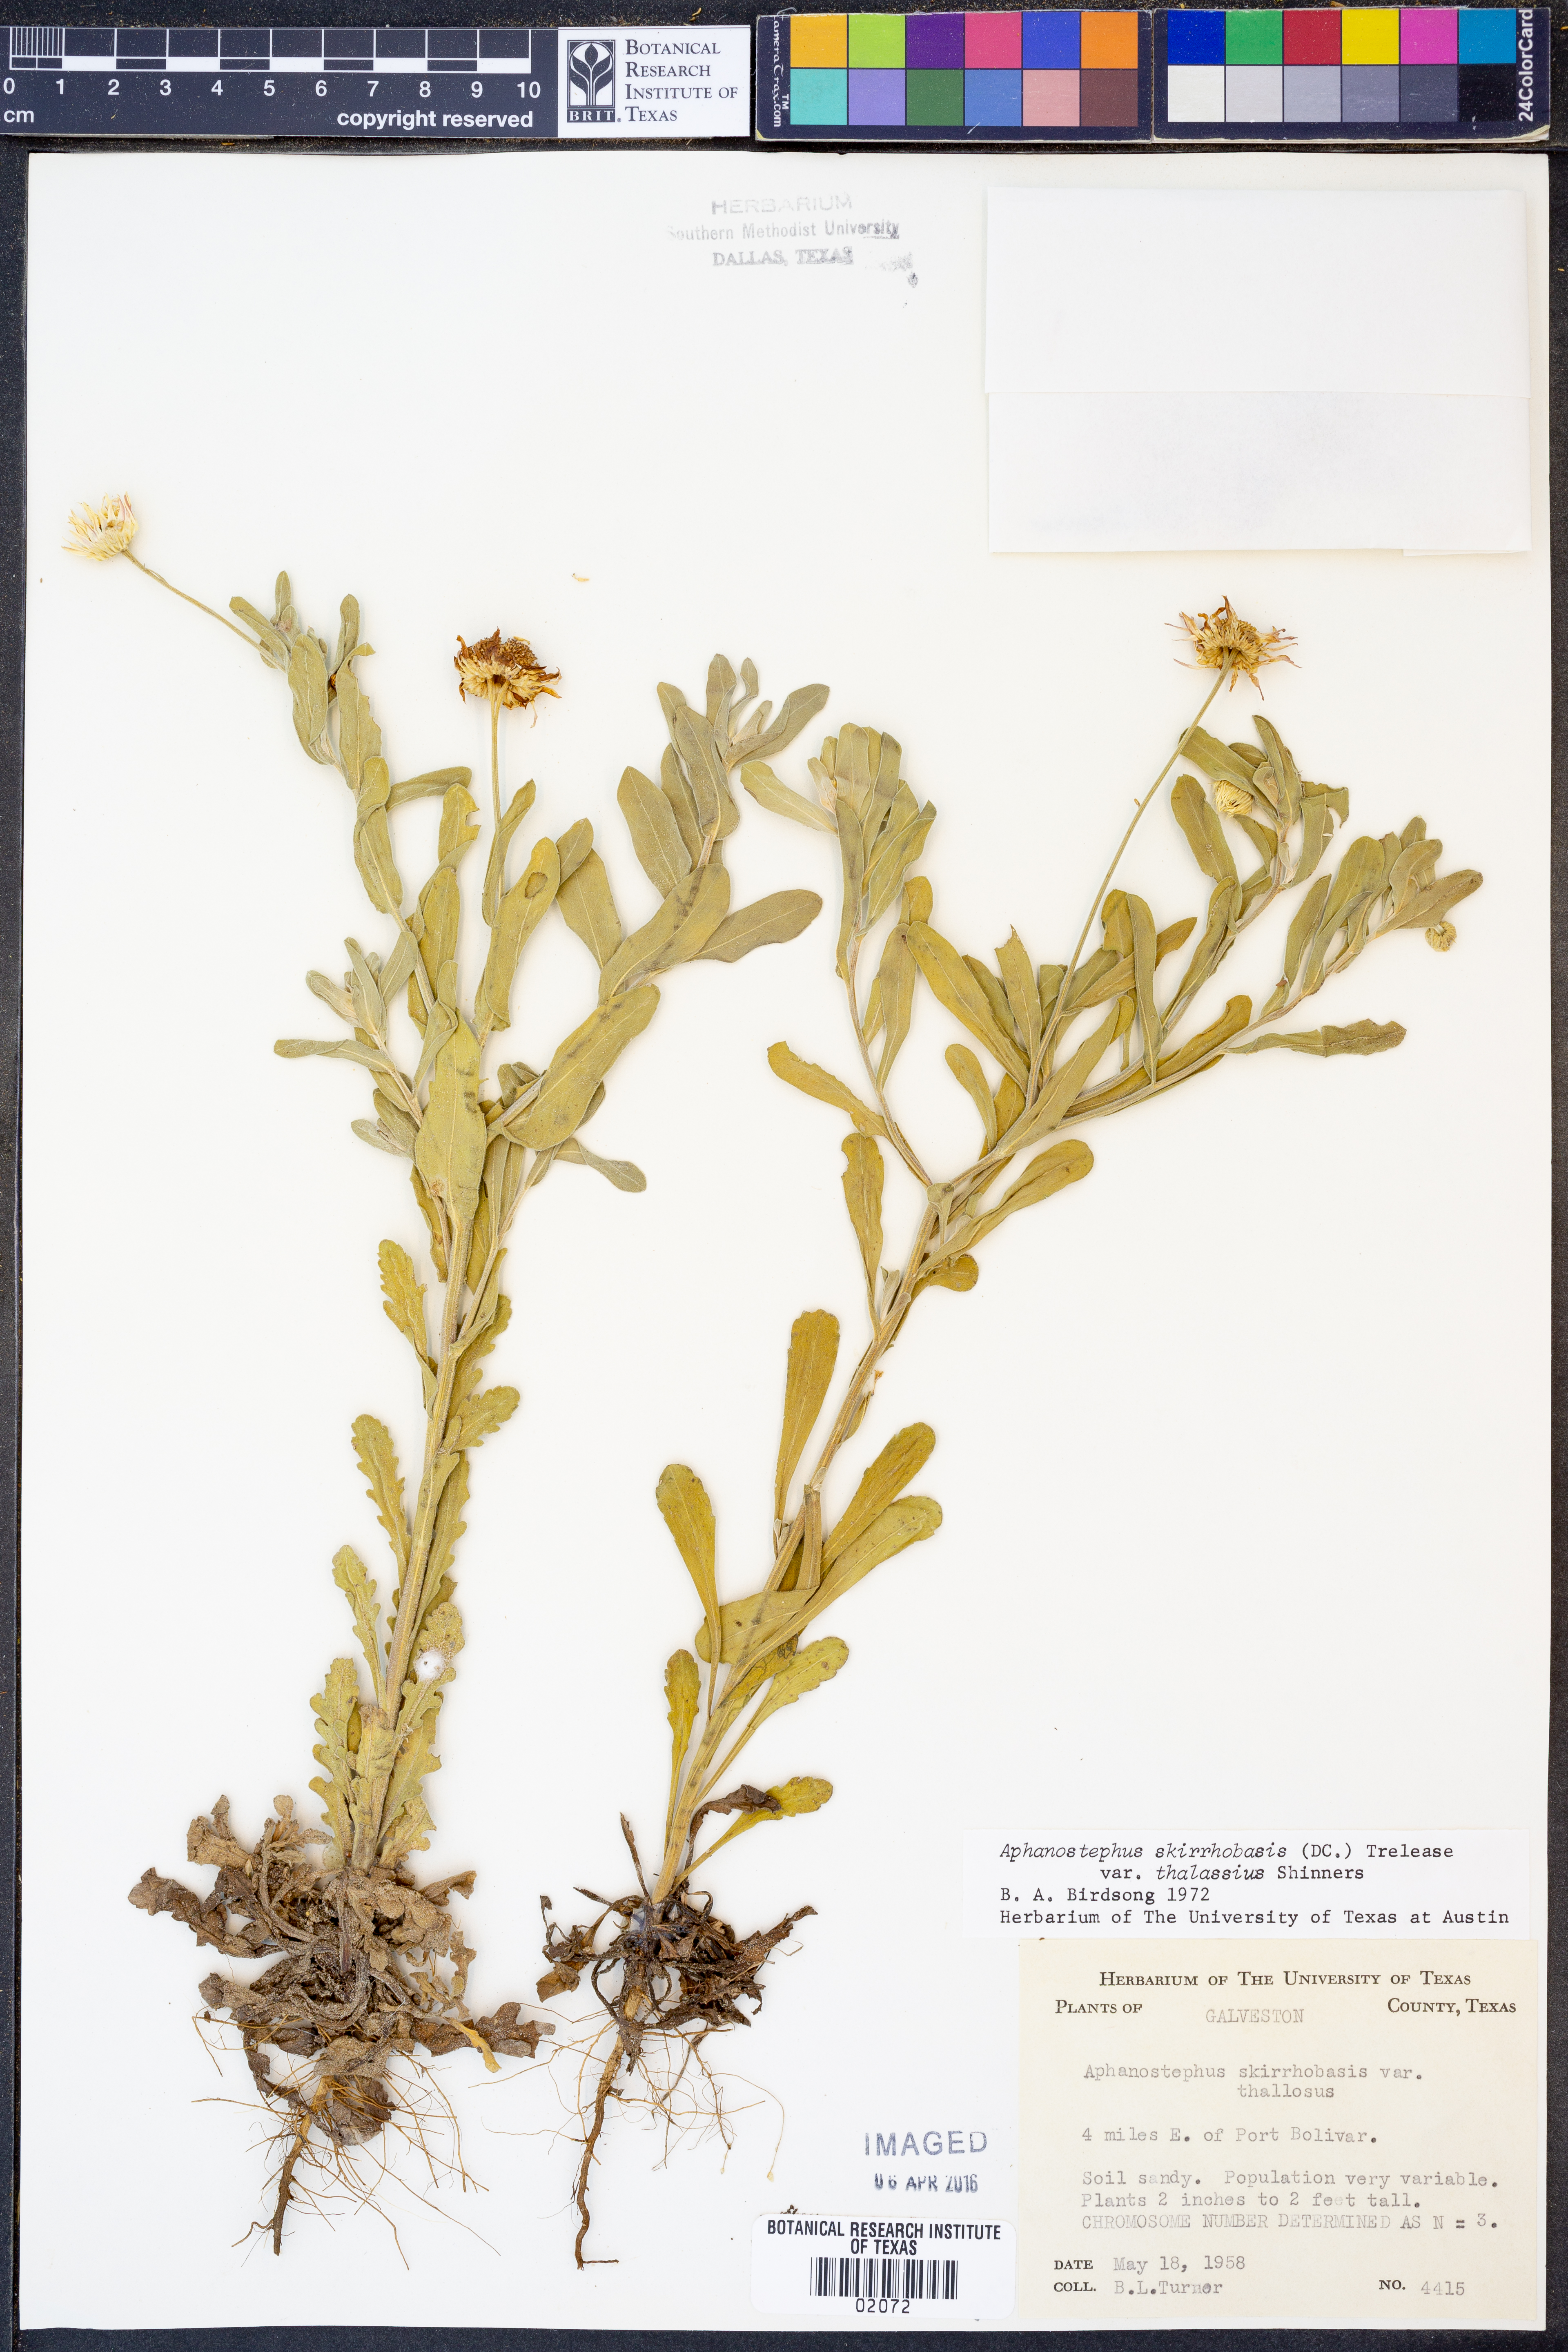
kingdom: Plantae
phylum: Tracheophyta
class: Magnoliopsida
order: Asterales
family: Asteraceae
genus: Aphanostephus
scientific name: Aphanostephus skirrhobasis
